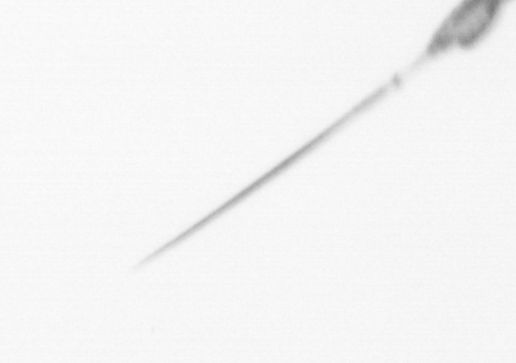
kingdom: Animalia
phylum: Arthropoda
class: Copepoda
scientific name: Copepoda
